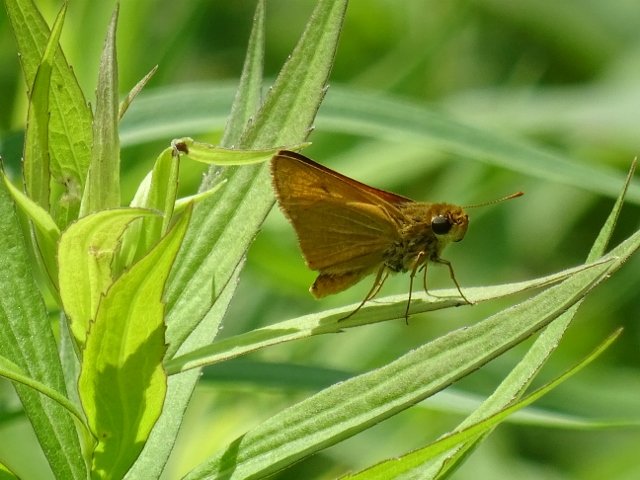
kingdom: Animalia
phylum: Arthropoda
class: Insecta
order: Lepidoptera
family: Hesperiidae
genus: Atrytone
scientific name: Atrytone delaware
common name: Delaware Skipper
